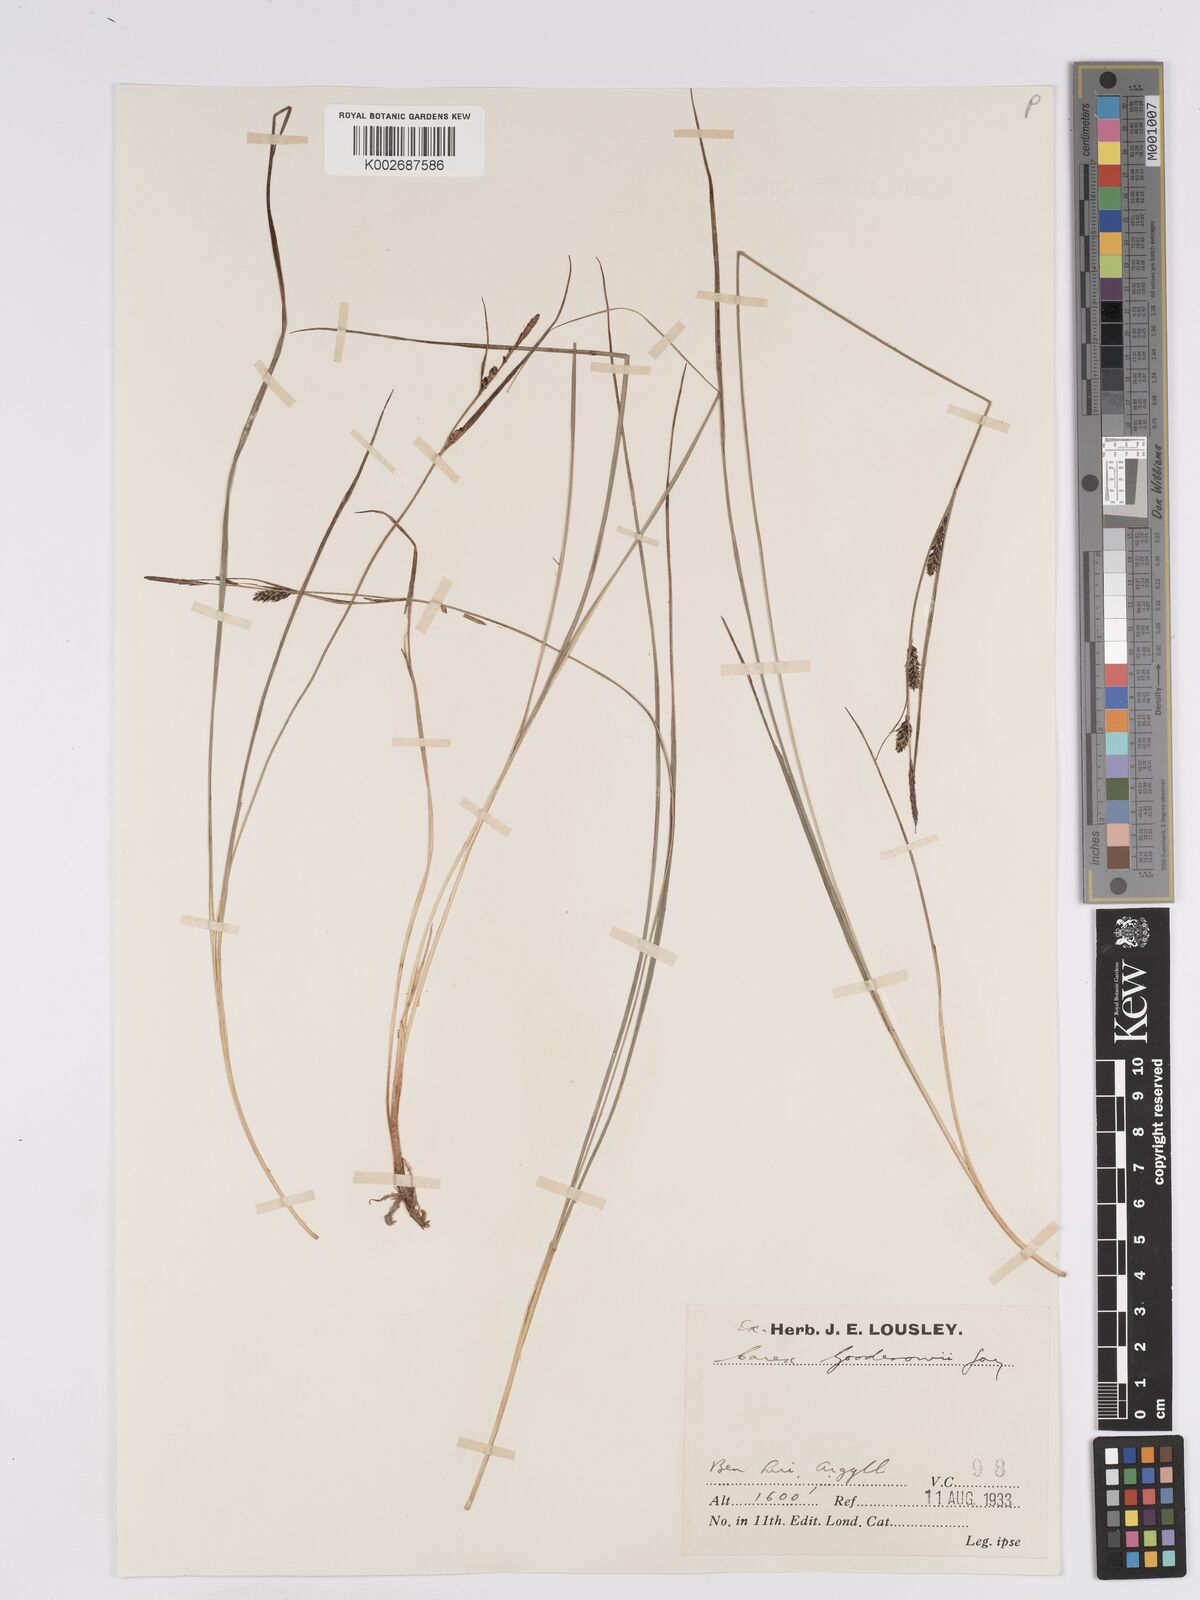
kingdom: Plantae
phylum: Tracheophyta
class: Liliopsida
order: Poales
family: Cyperaceae
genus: Carex
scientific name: Carex nigra
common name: Common sedge
